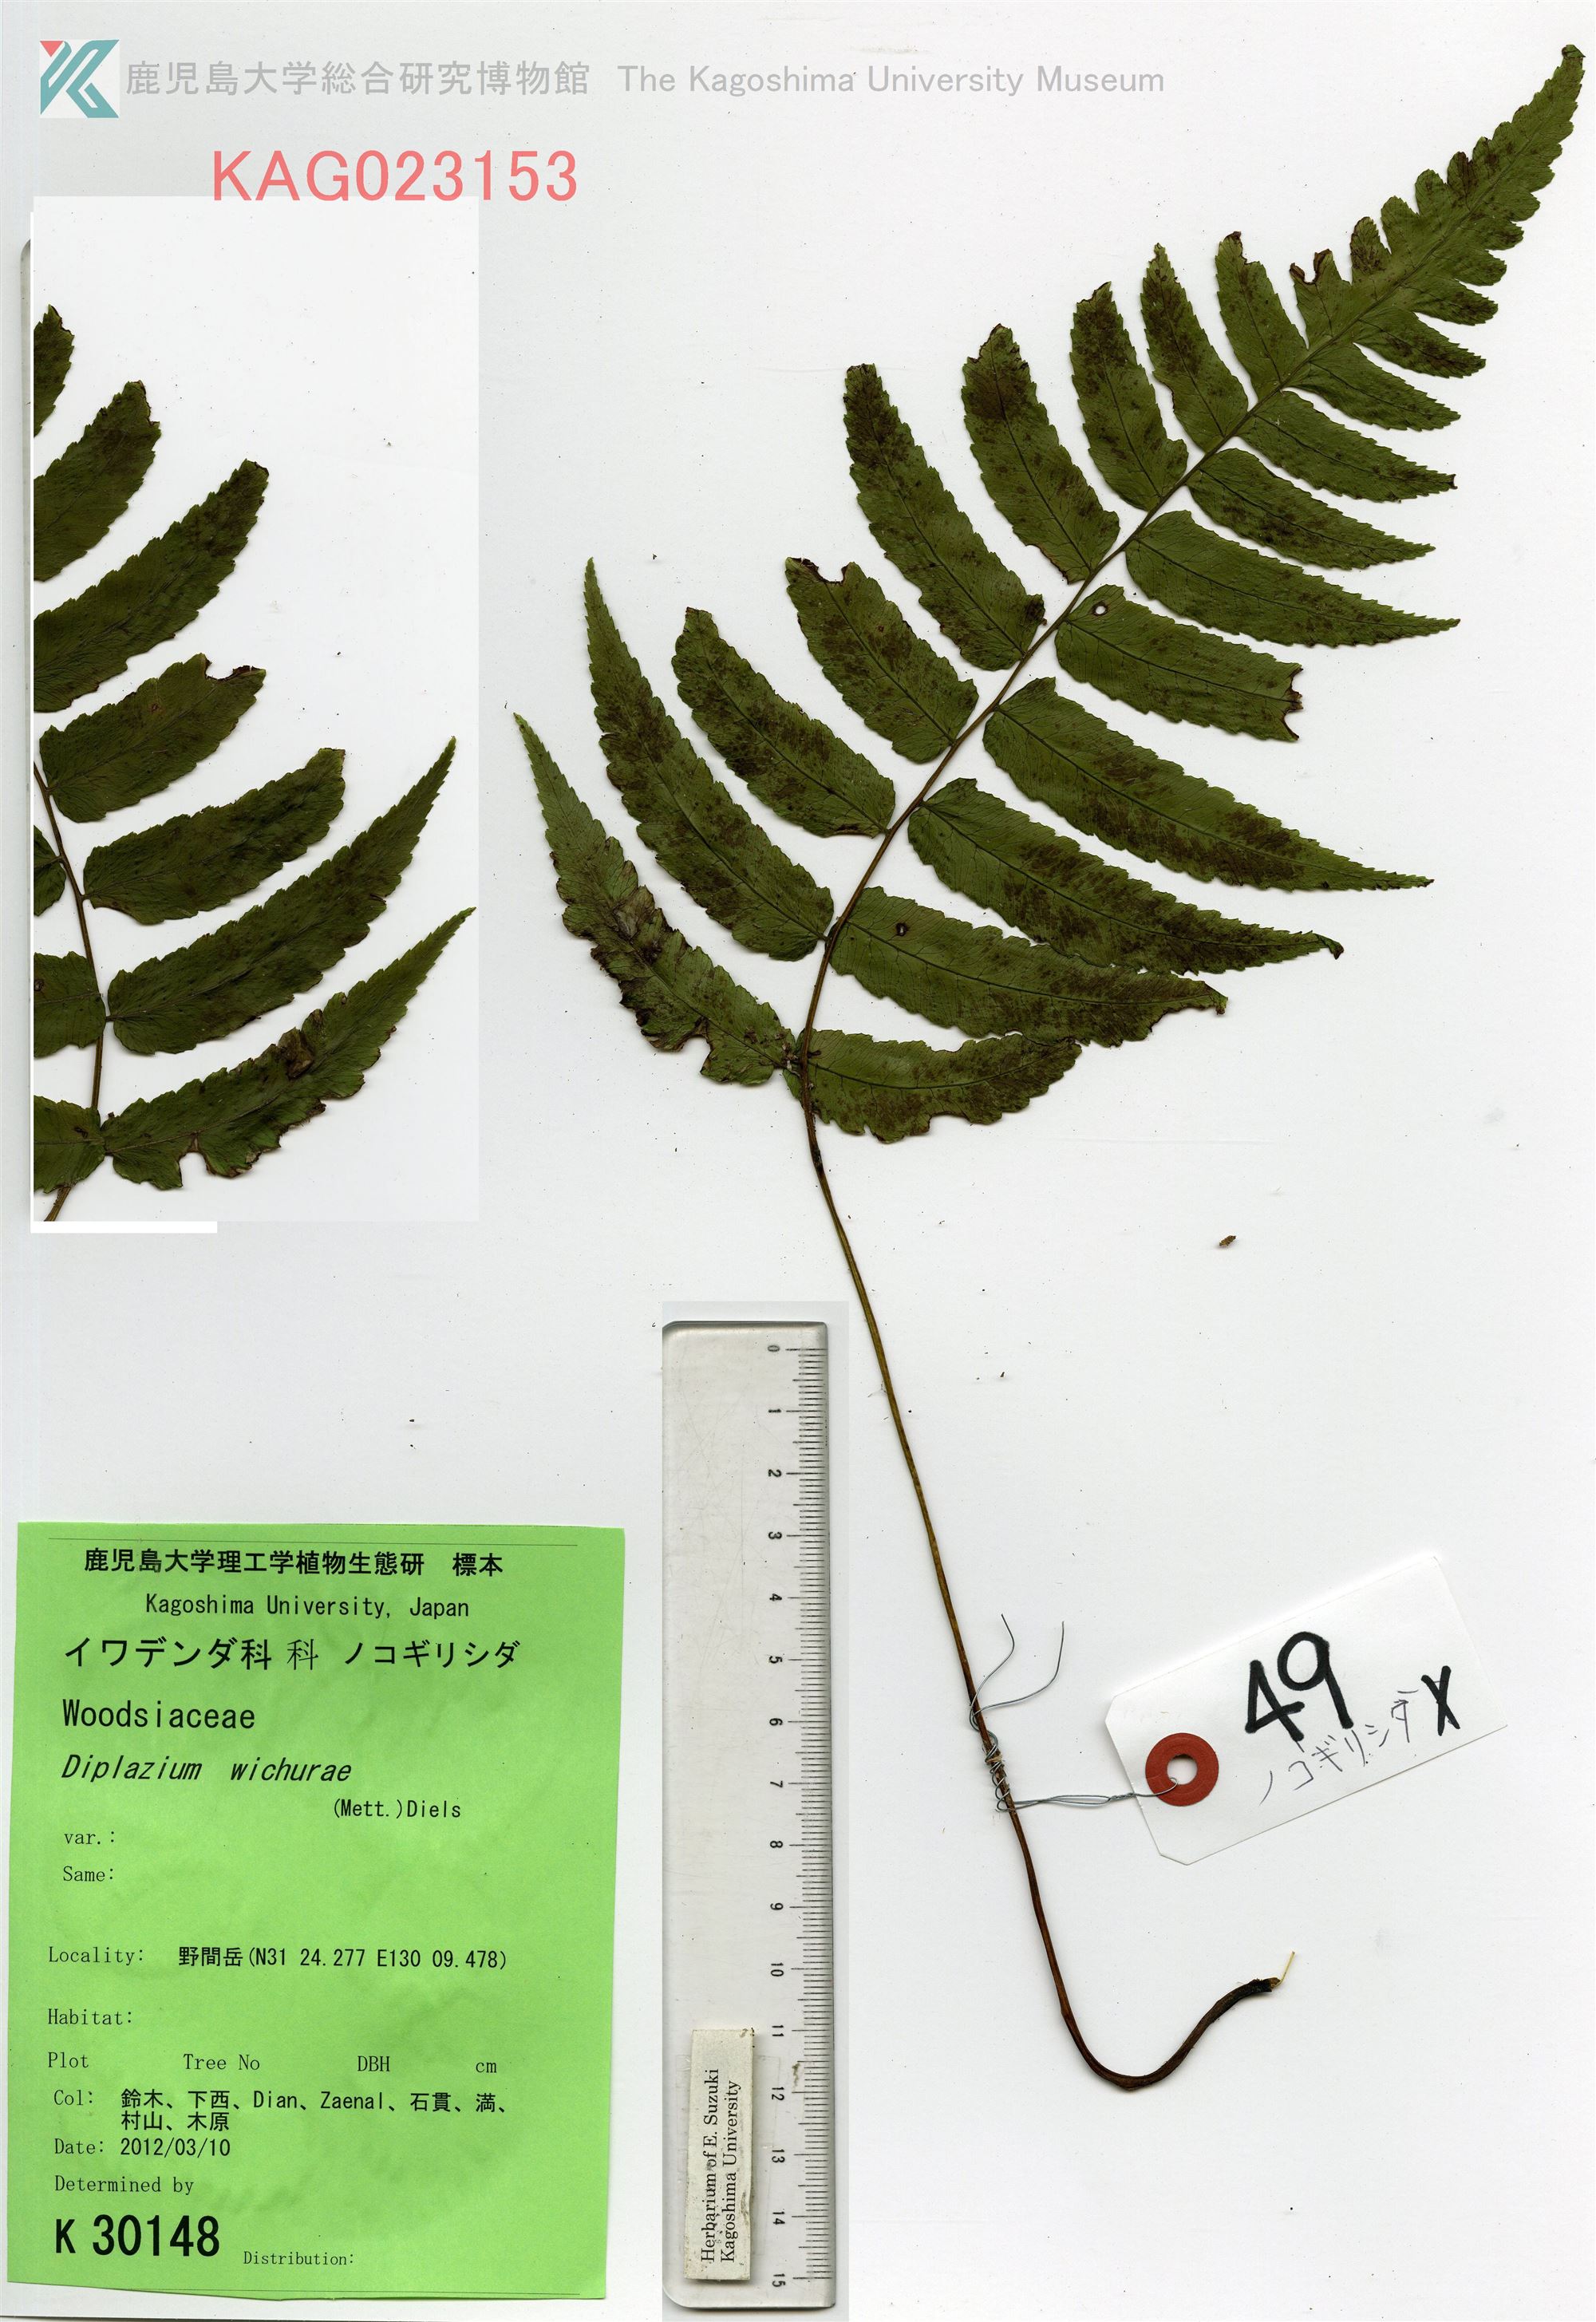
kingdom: Plantae
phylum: Tracheophyta
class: Polypodiopsida
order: Polypodiales
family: Athyriaceae
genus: Diplazium
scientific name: Diplazium wichurae
